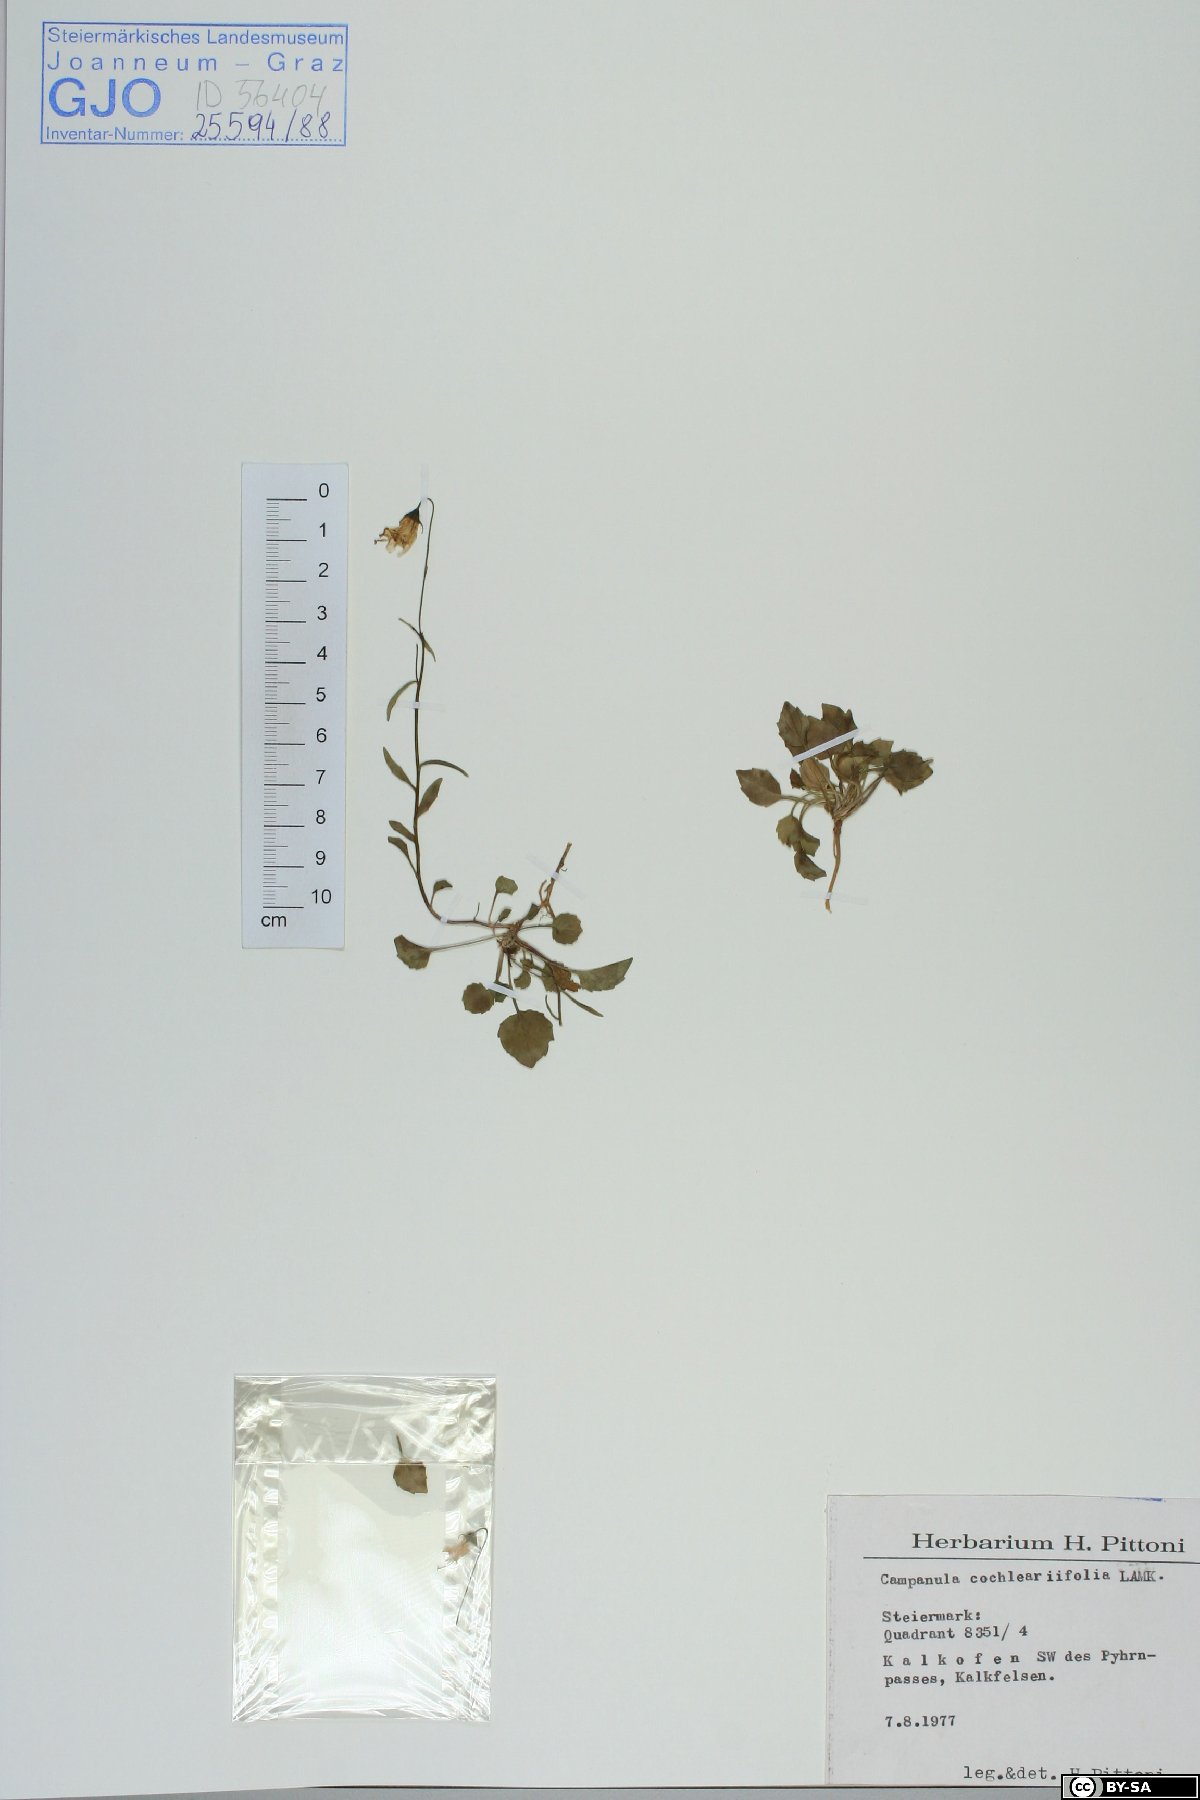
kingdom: Plantae
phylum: Tracheophyta
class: Magnoliopsida
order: Asterales
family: Campanulaceae
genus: Campanula
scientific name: Campanula cochleariifolia
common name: Fairies'-thimbles
